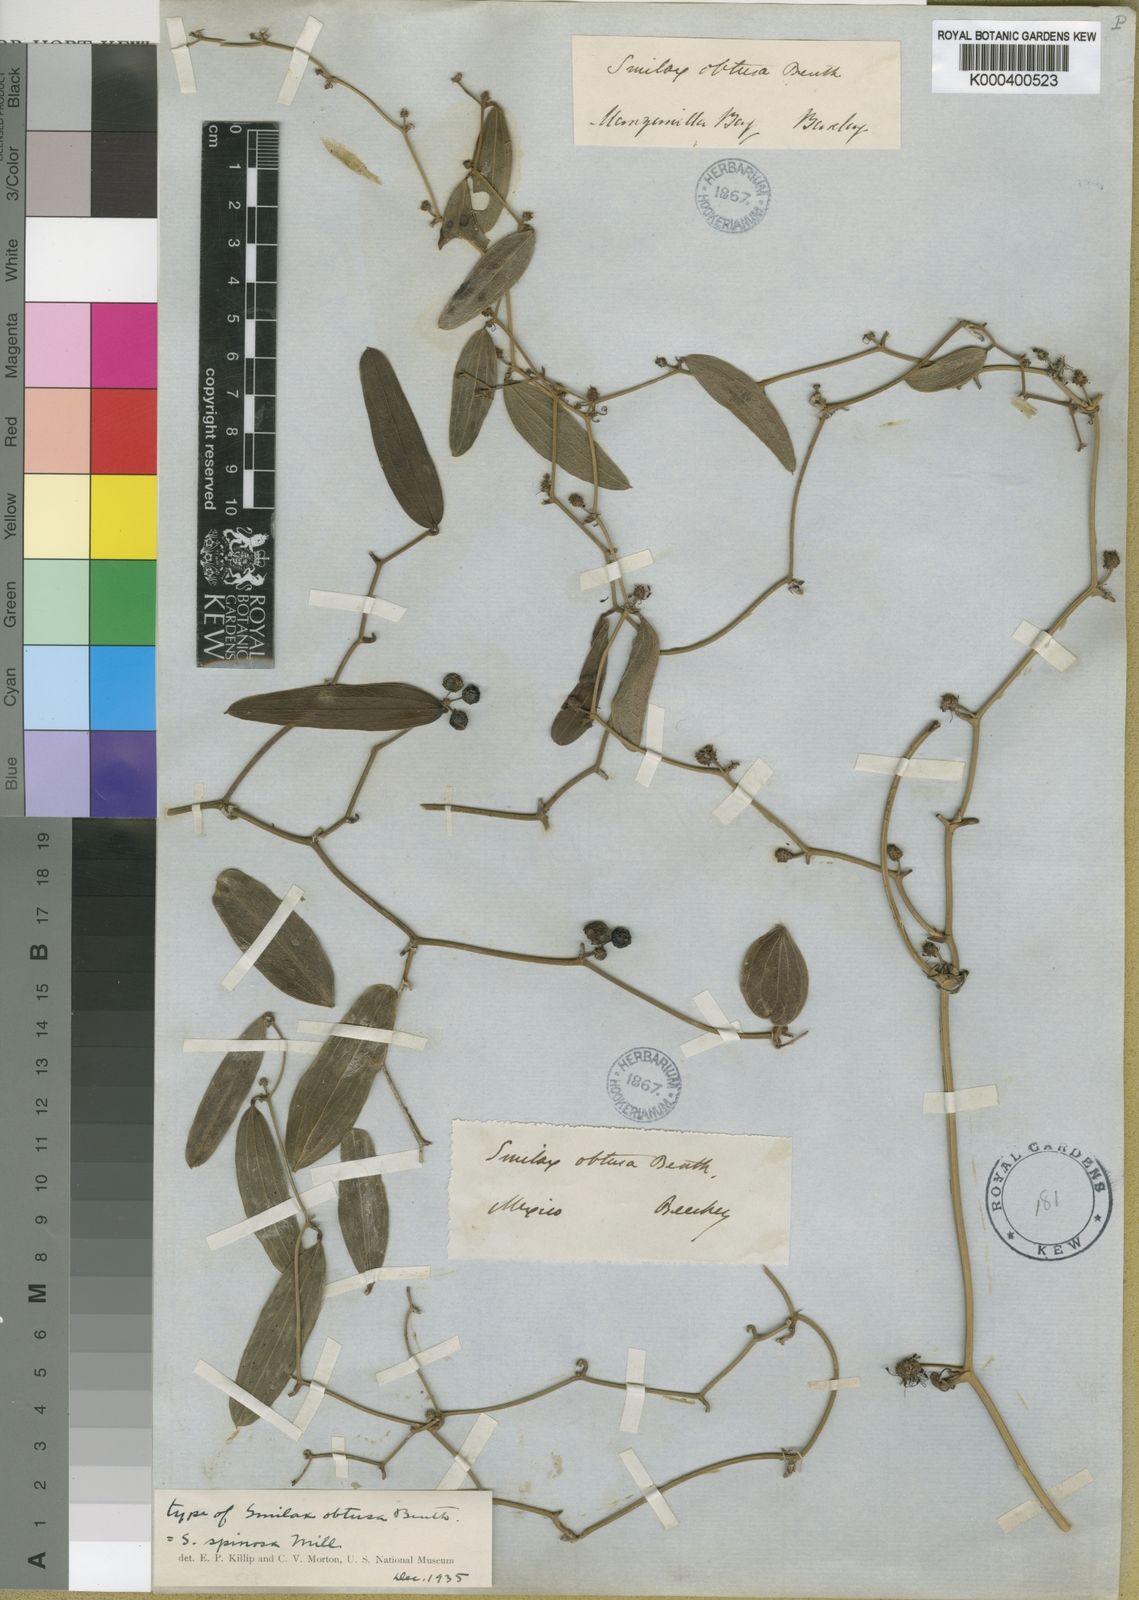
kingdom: Plantae
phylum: Tracheophyta
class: Liliopsida
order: Liliales
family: Smilacaceae
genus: Smilax
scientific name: Smilax spinosa
